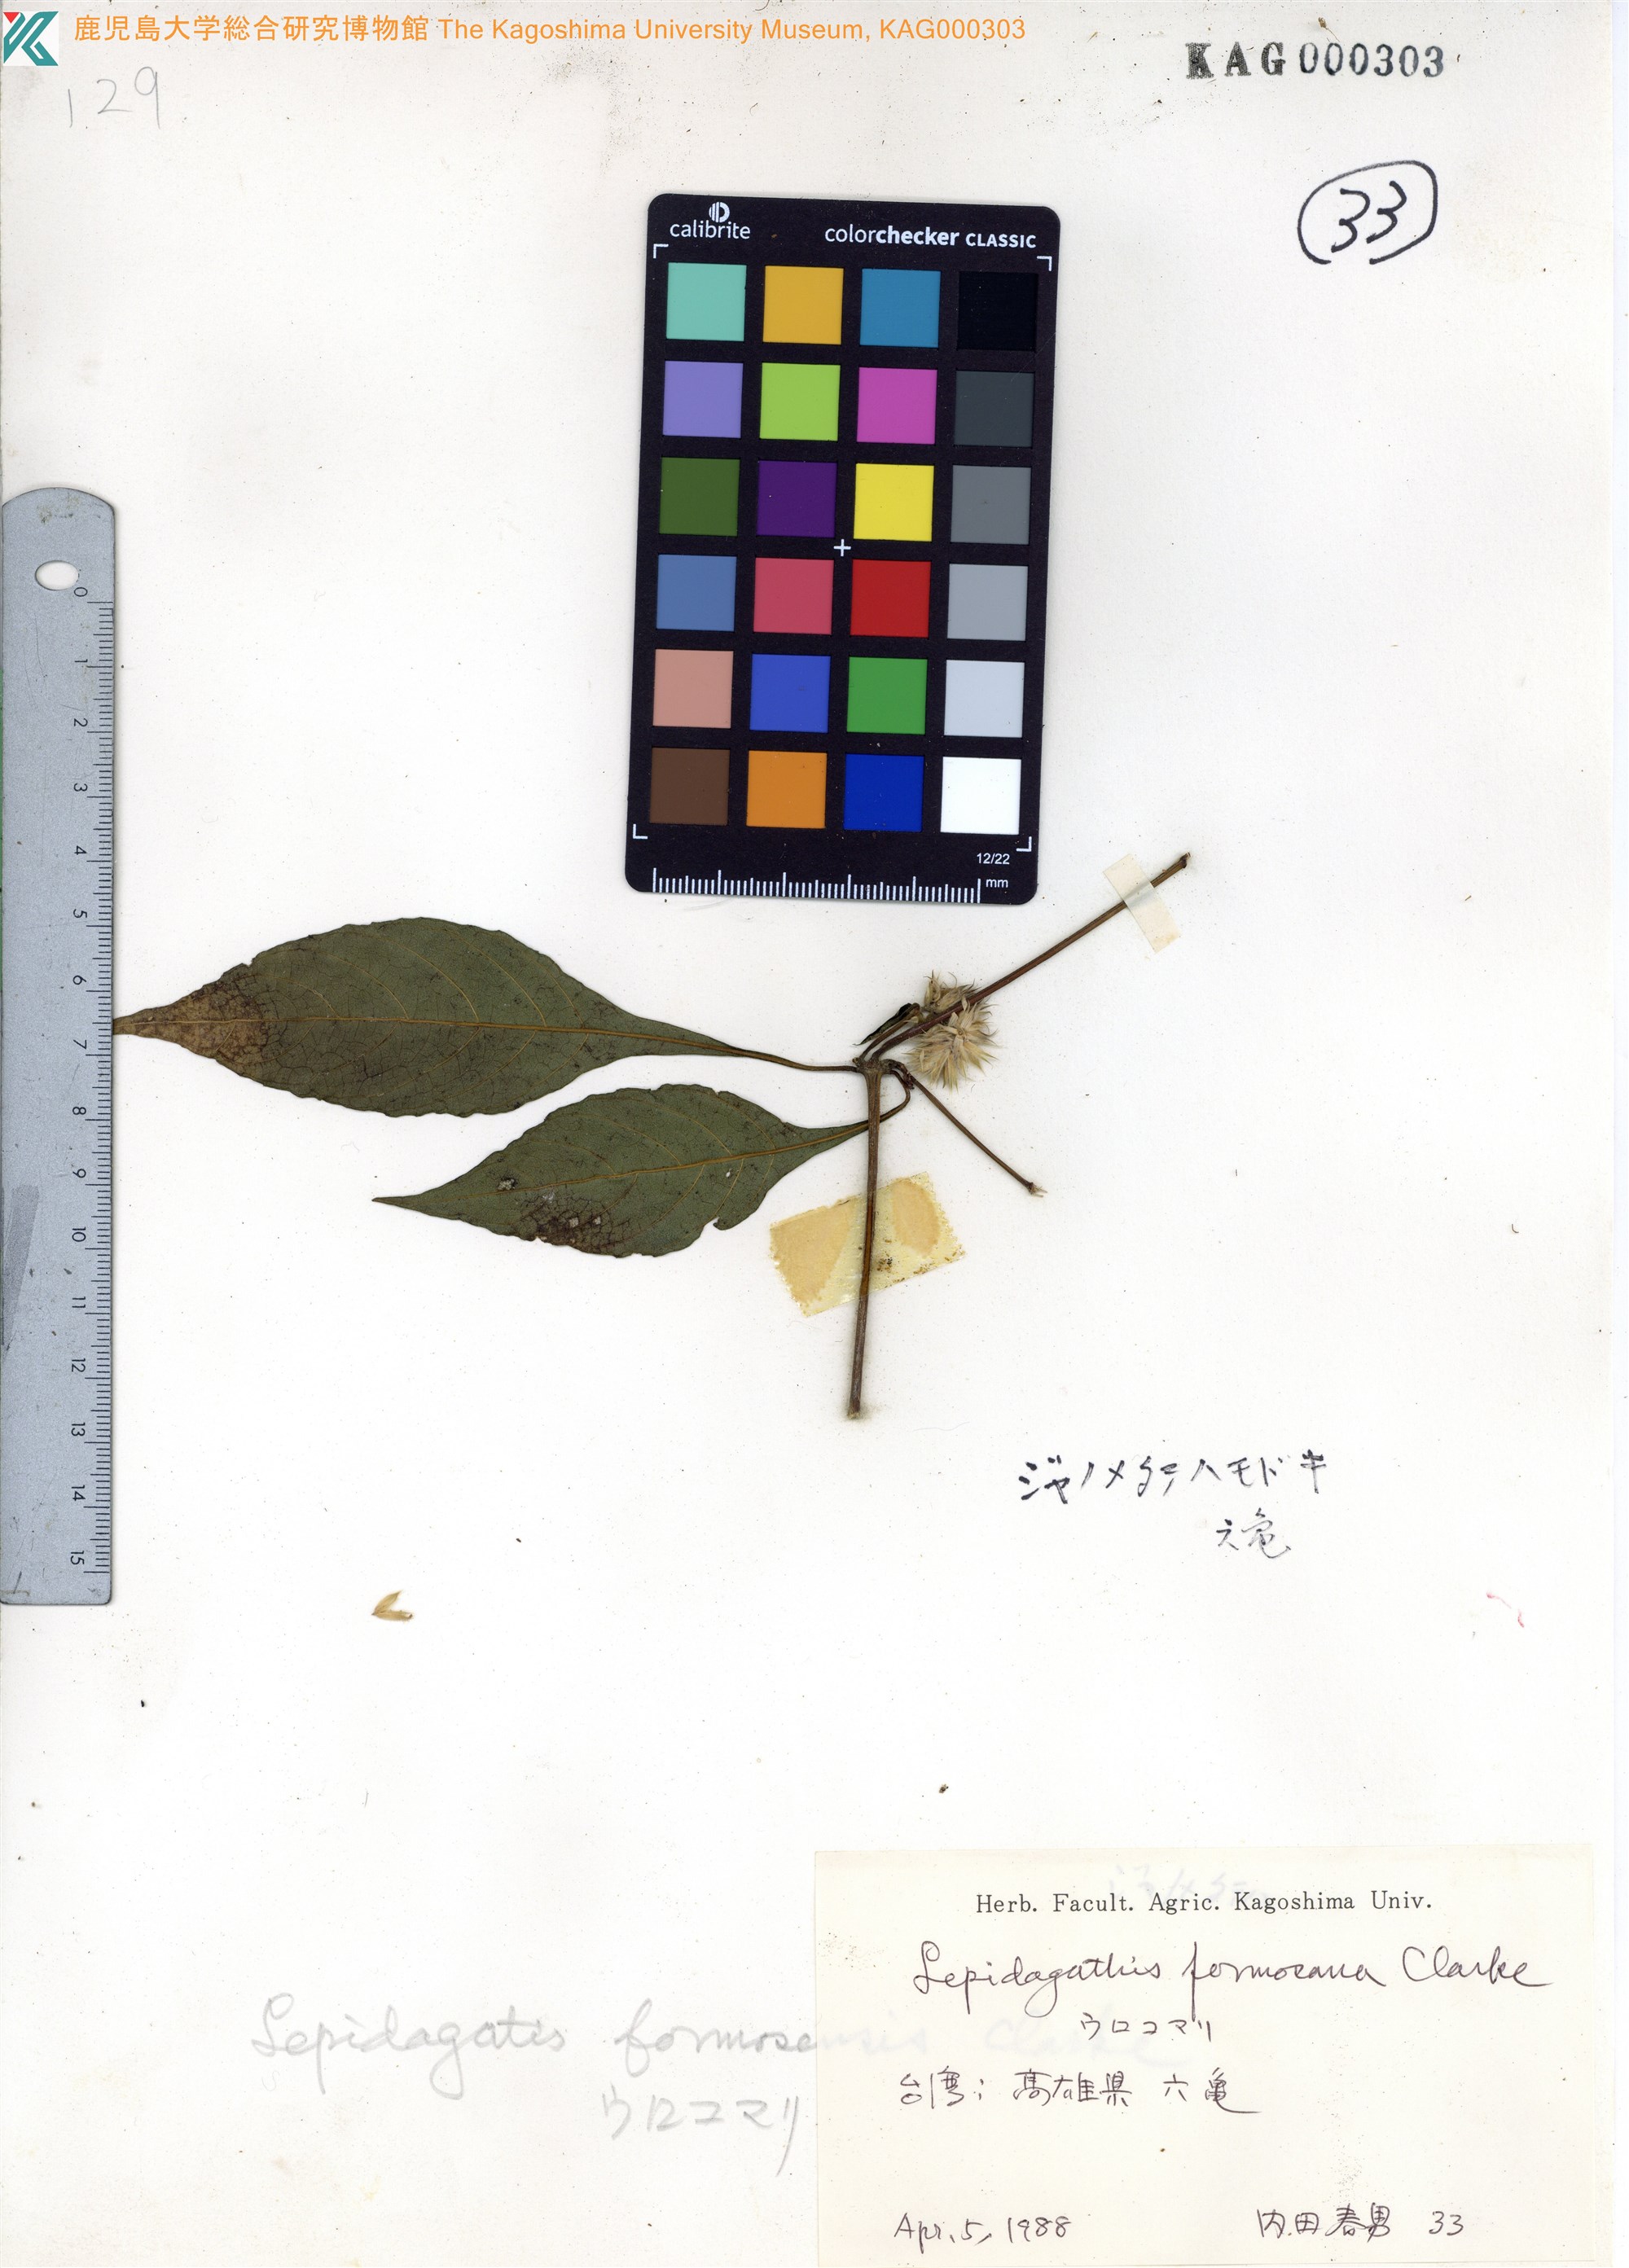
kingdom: Plantae
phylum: Tracheophyta
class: Magnoliopsida
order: Lamiales
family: Acanthaceae
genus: Lepidagathis
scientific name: Lepidagathis formosensis
